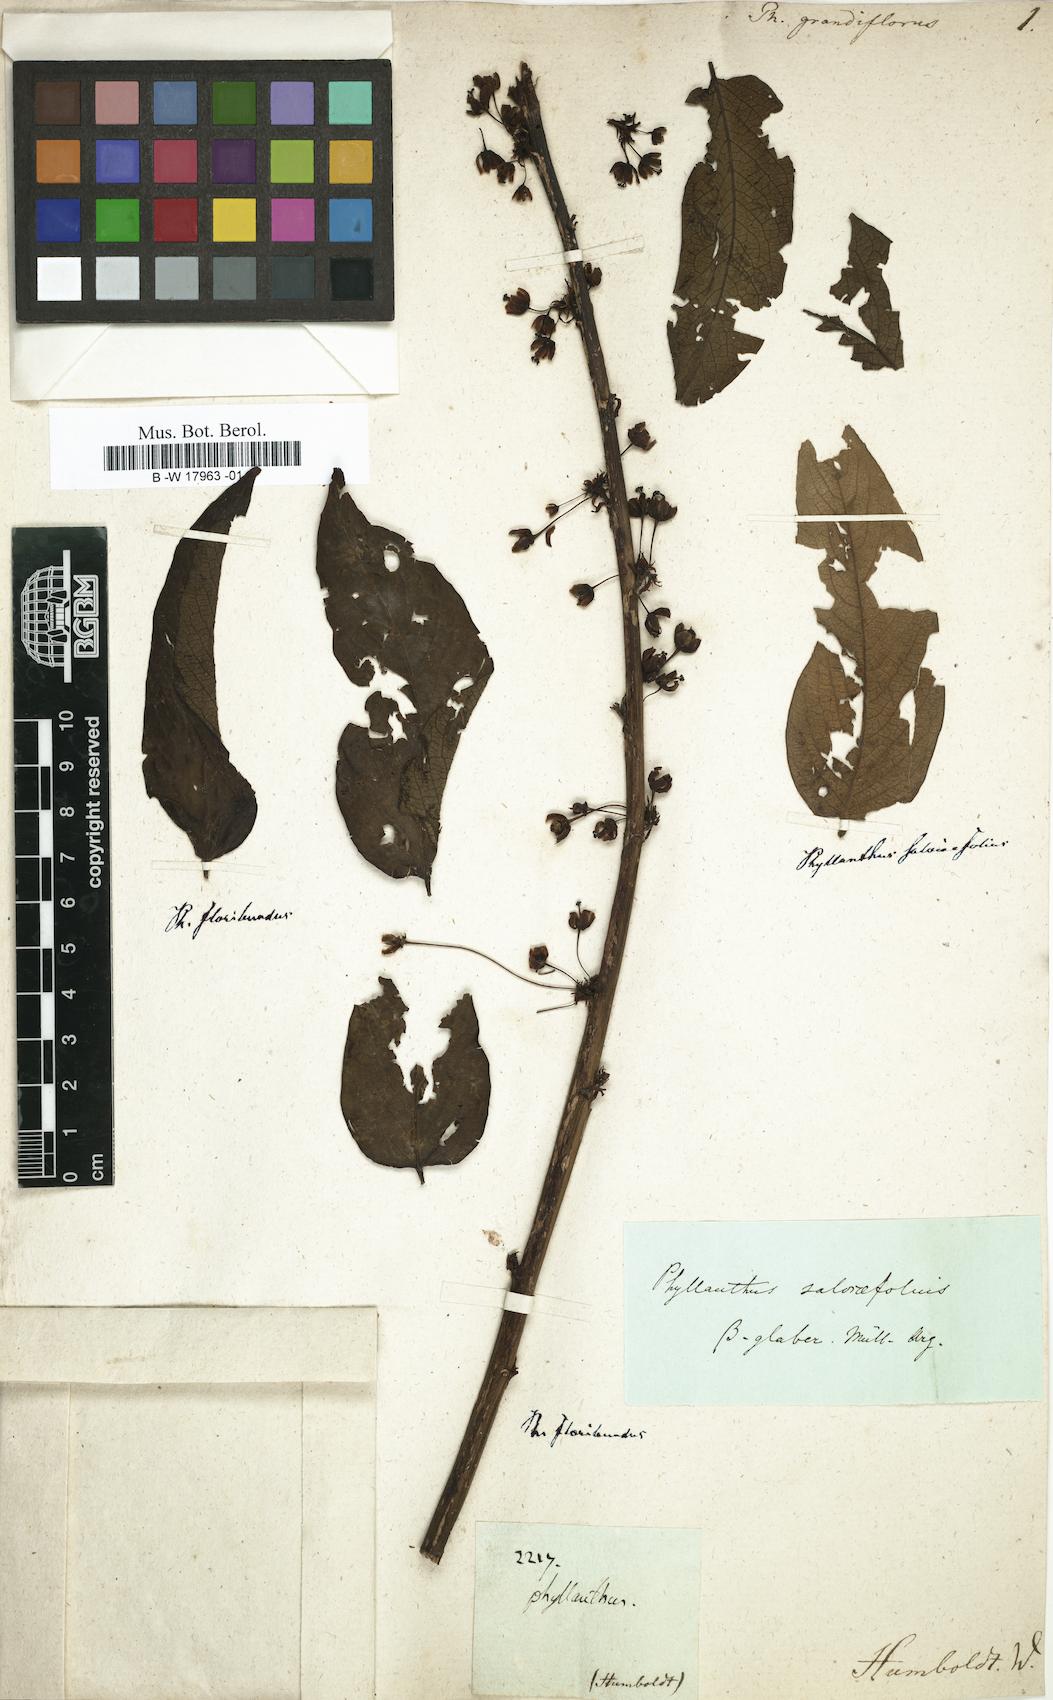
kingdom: Plantae
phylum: Tracheophyta
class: Magnoliopsida
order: Malpighiales
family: Phyllanthaceae
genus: Phyllanthus
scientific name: Phyllanthus grandifolius
